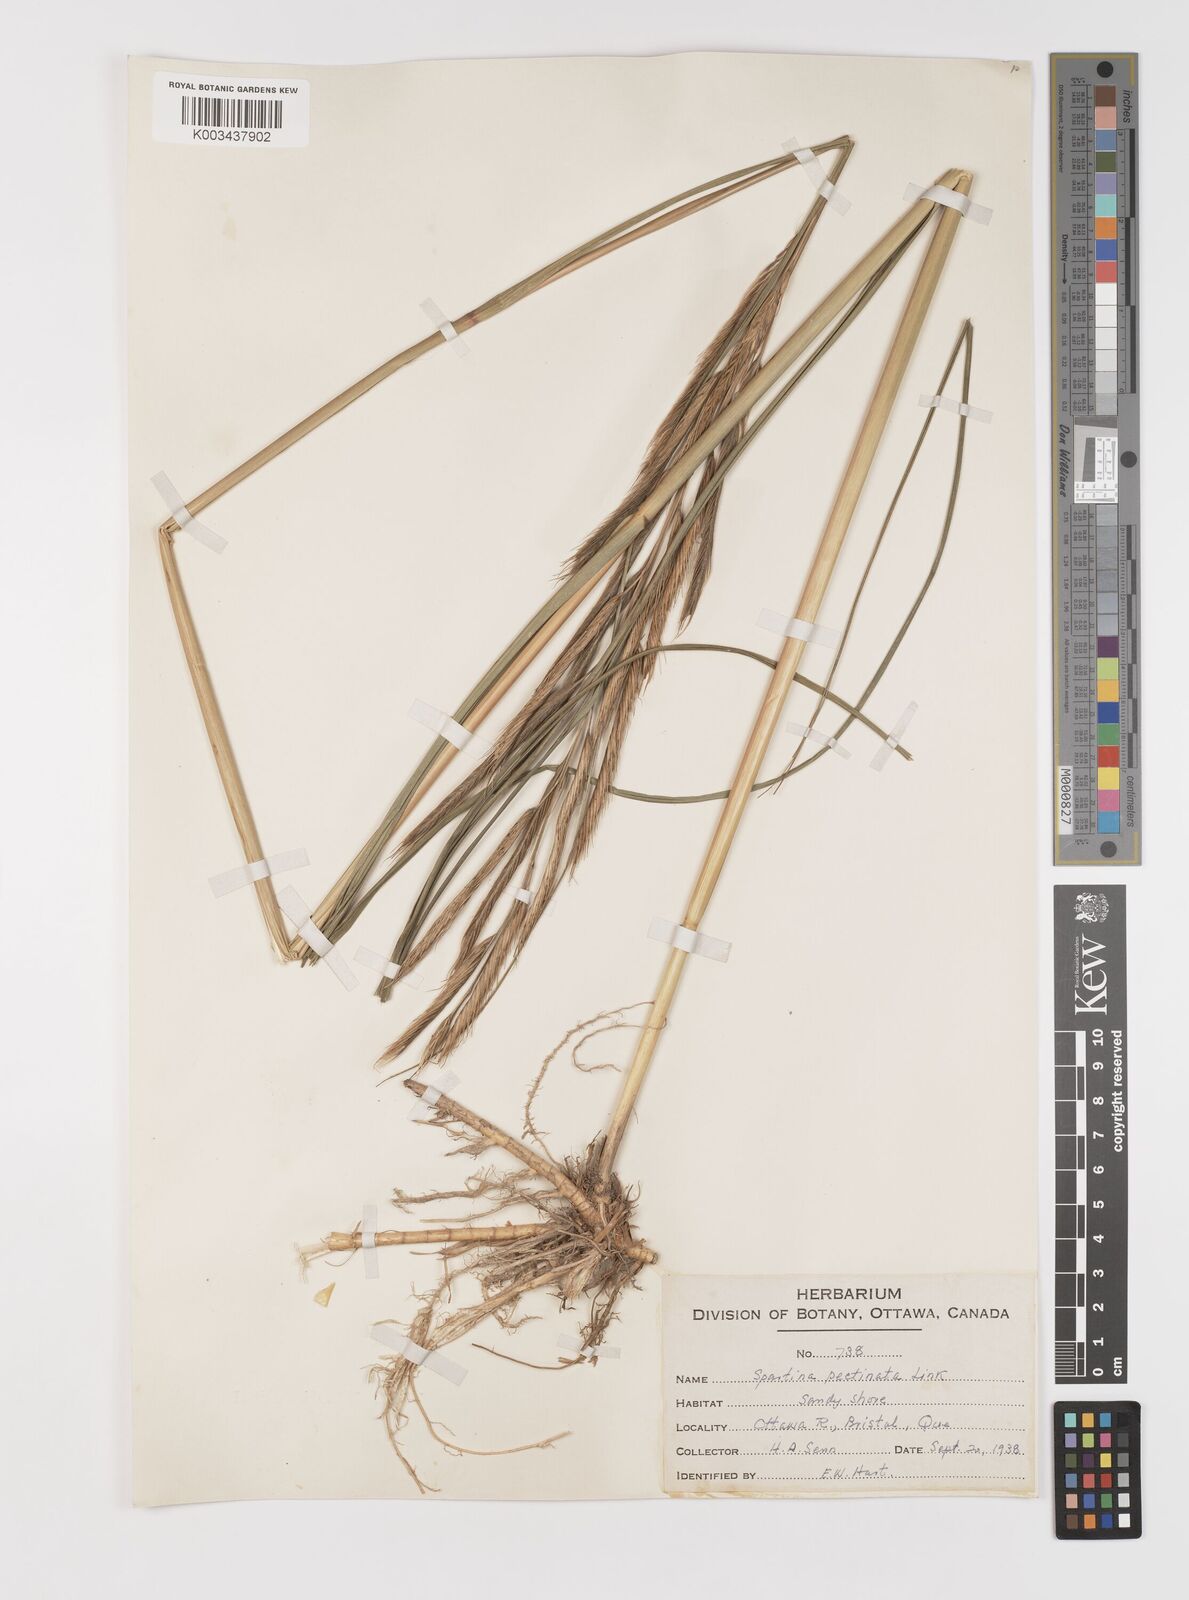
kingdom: Plantae
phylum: Tracheophyta
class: Liliopsida
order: Poales
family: Poaceae
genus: Sporobolus
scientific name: Sporobolus michauxianus
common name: Freshwater cordgrass
